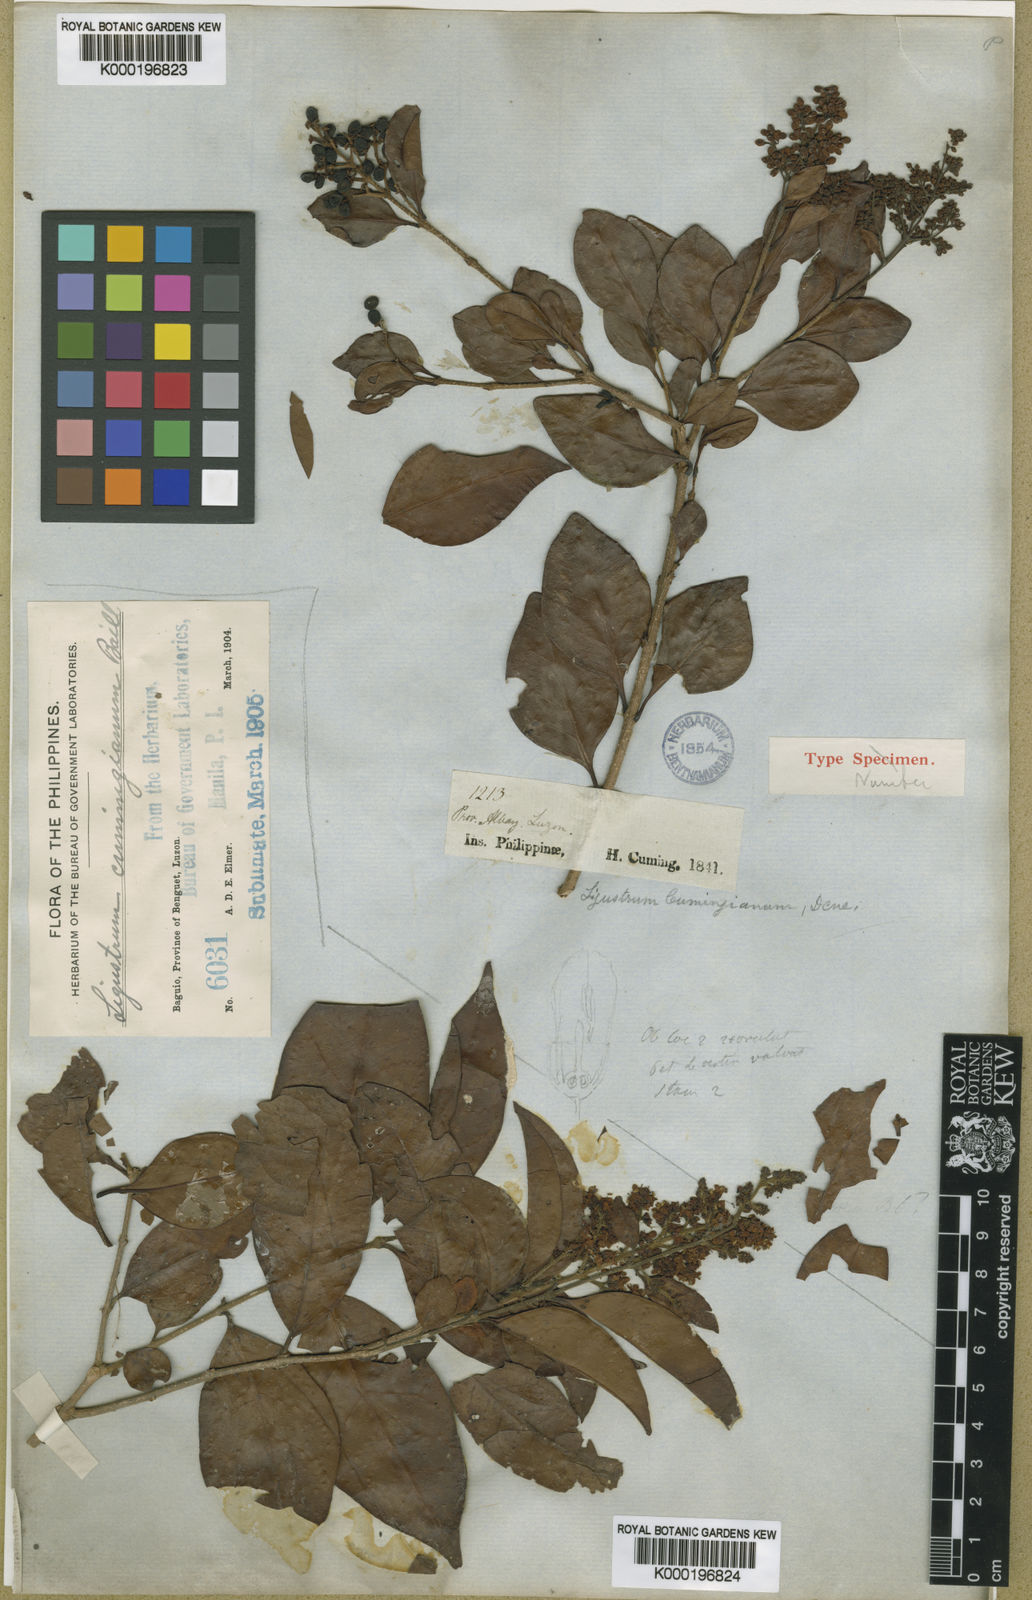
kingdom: Plantae
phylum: Tracheophyta
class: Magnoliopsida
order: Lamiales
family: Oleaceae
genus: Ligustrum
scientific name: Ligustrum cumingianum
